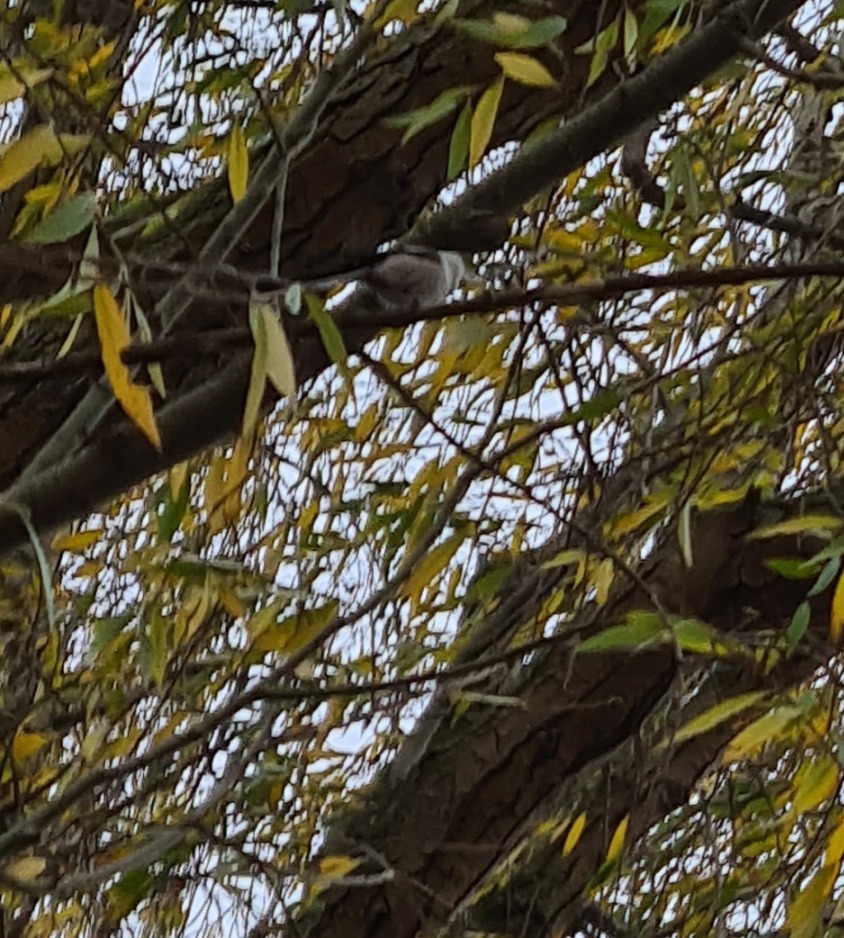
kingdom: Animalia
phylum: Chordata
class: Aves
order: Passeriformes
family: Aegithalidae
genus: Aegithalos
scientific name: Aegithalos caudatus
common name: Nordlig halemejse
